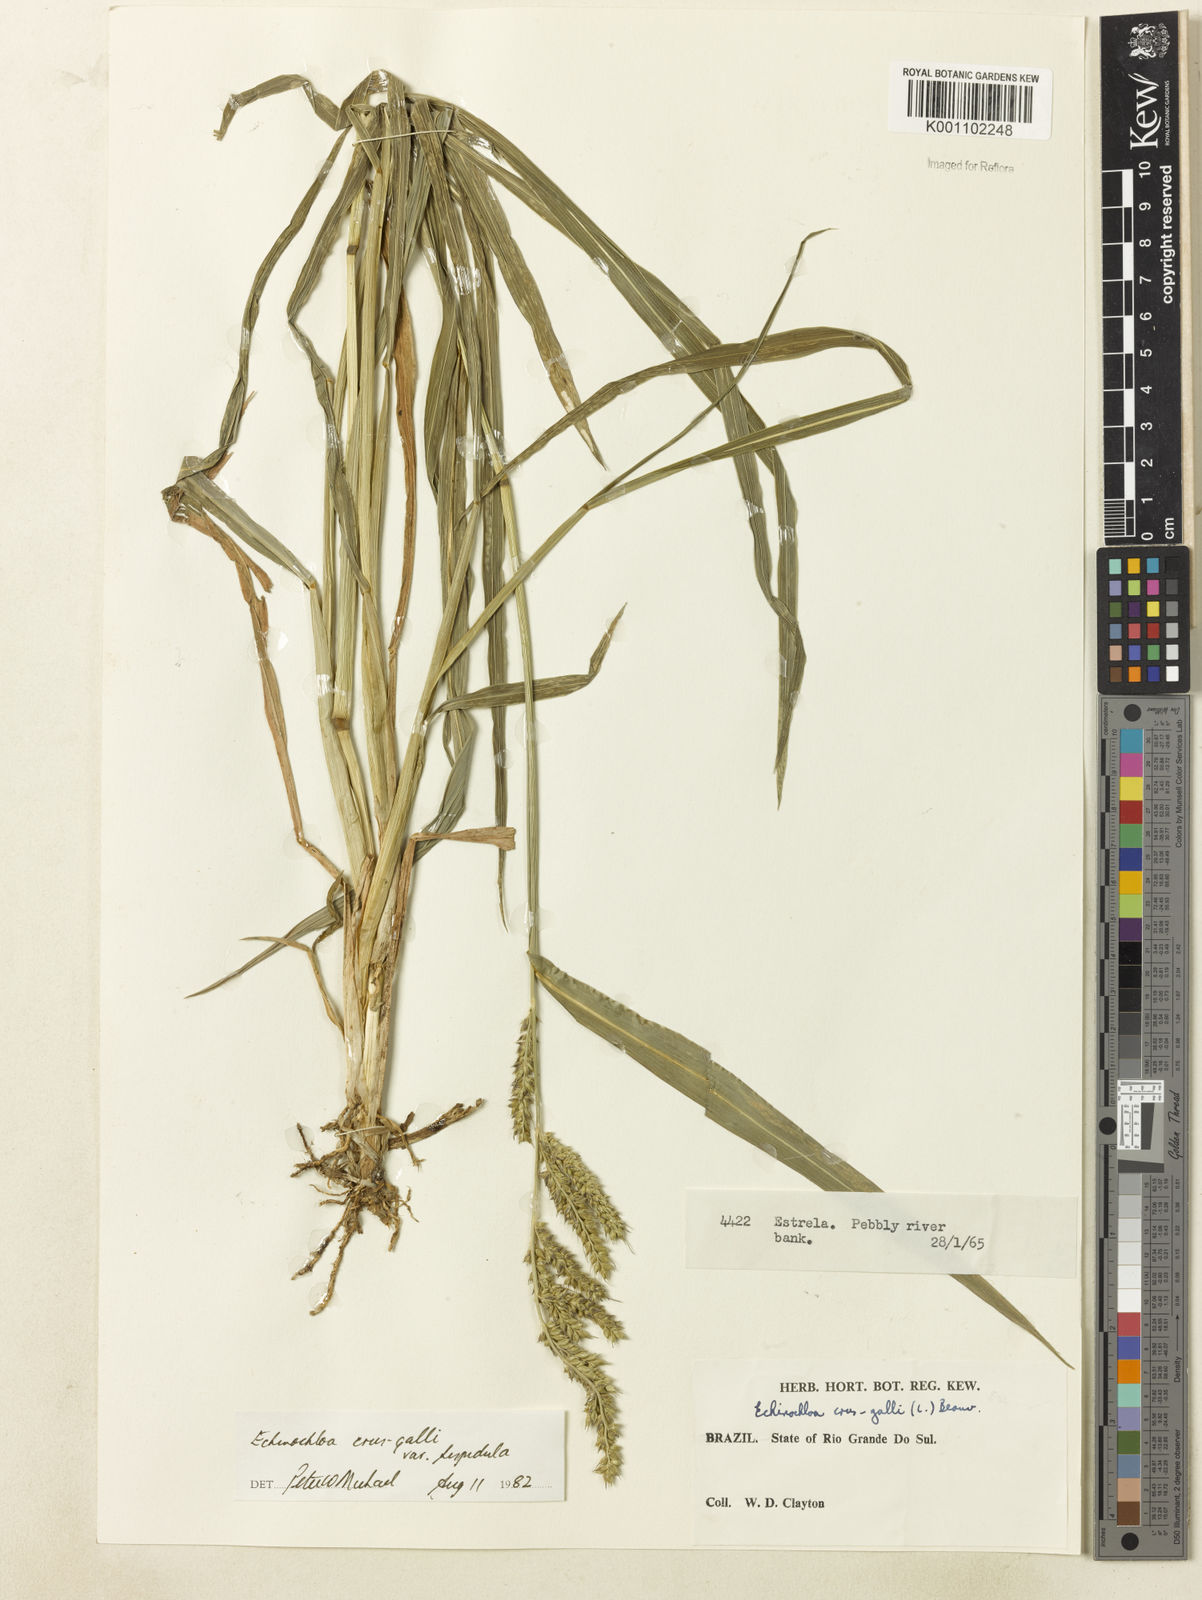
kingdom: Plantae
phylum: Tracheophyta
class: Liliopsida
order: Poales
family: Poaceae
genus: Echinochloa
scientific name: Echinochloa crus-galli
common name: Cockspur
